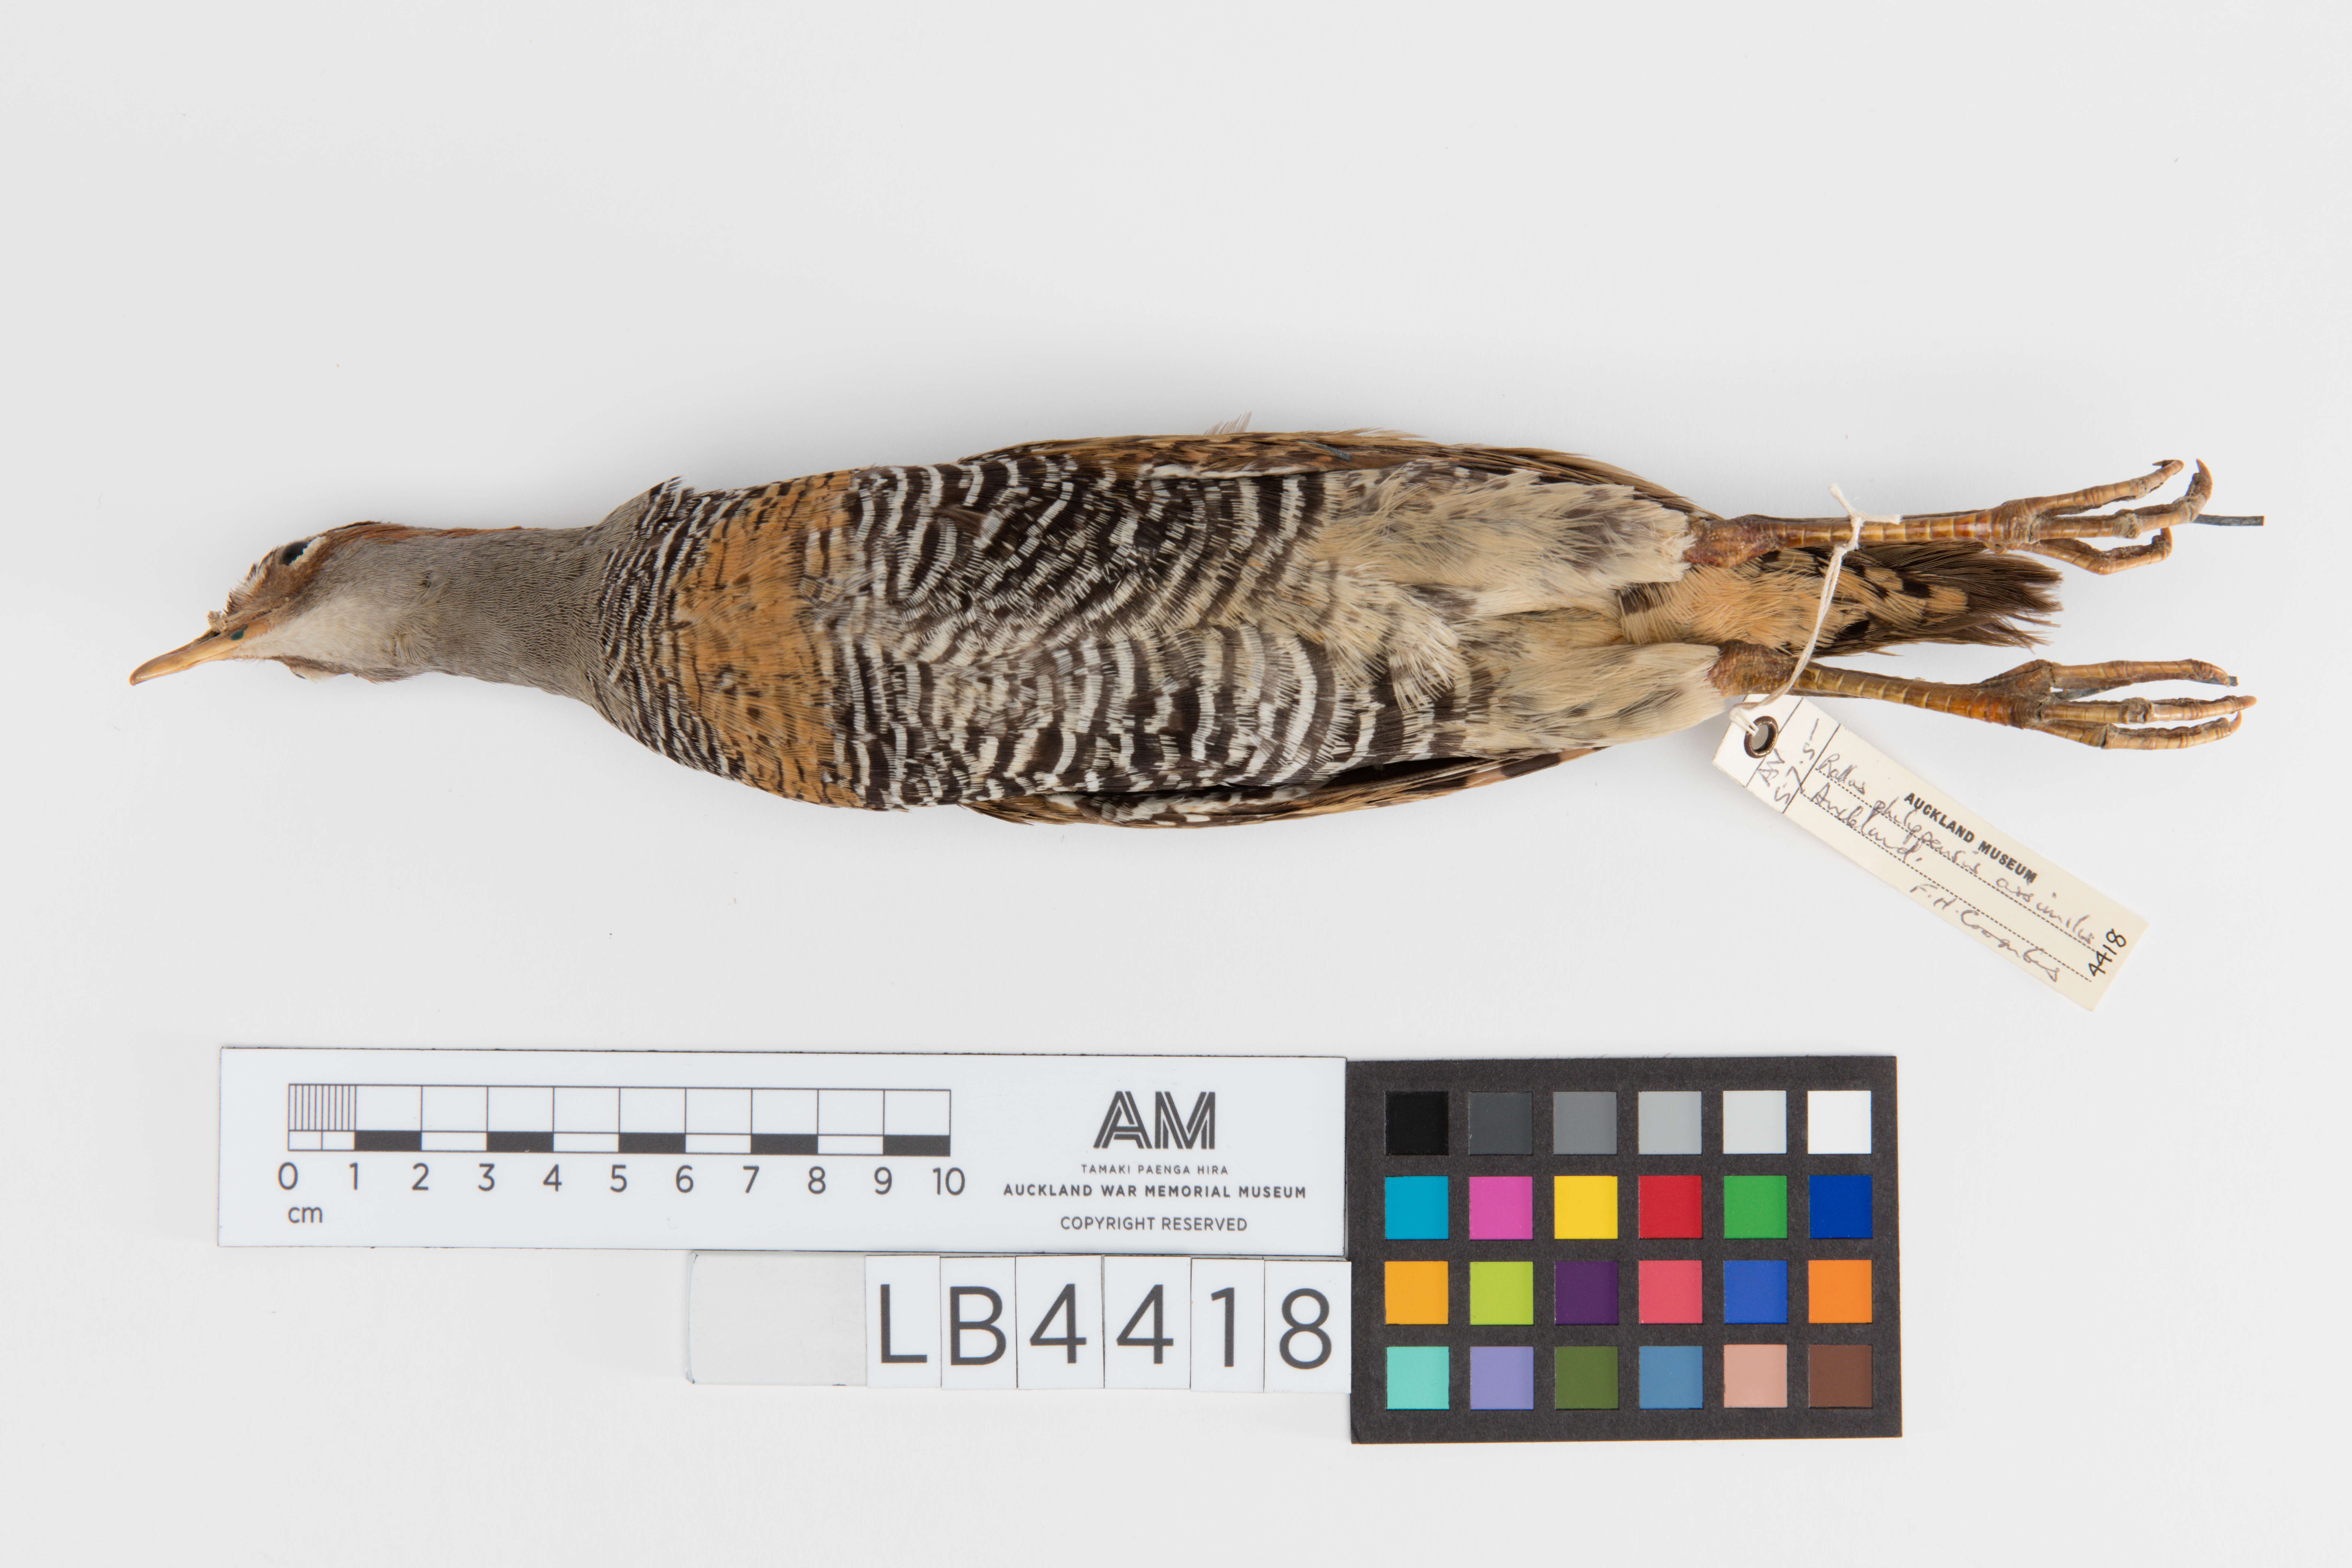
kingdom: Animalia
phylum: Chordata
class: Aves
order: Gruiformes
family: Rallidae
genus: Gallirallus
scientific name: Gallirallus philippensis
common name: Buff-banded rail
